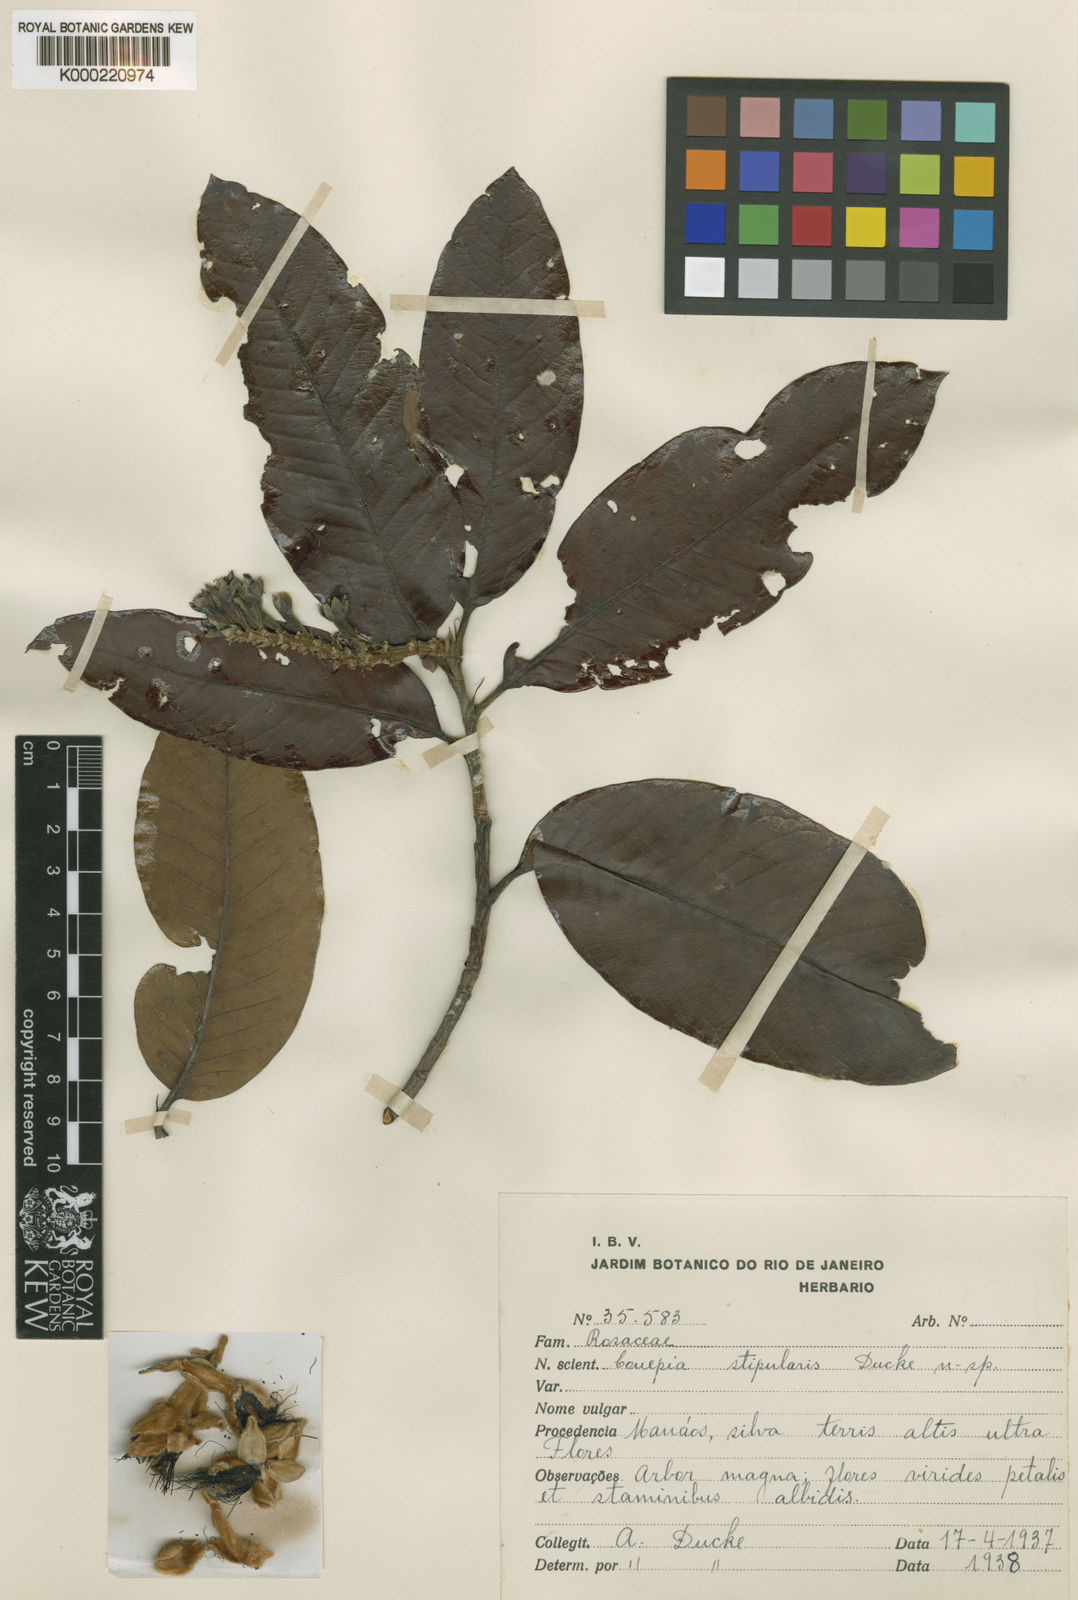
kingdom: Plantae
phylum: Tracheophyta
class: Magnoliopsida
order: Malpighiales
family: Chrysobalanaceae
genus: Couepia
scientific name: Couepia stipularis
